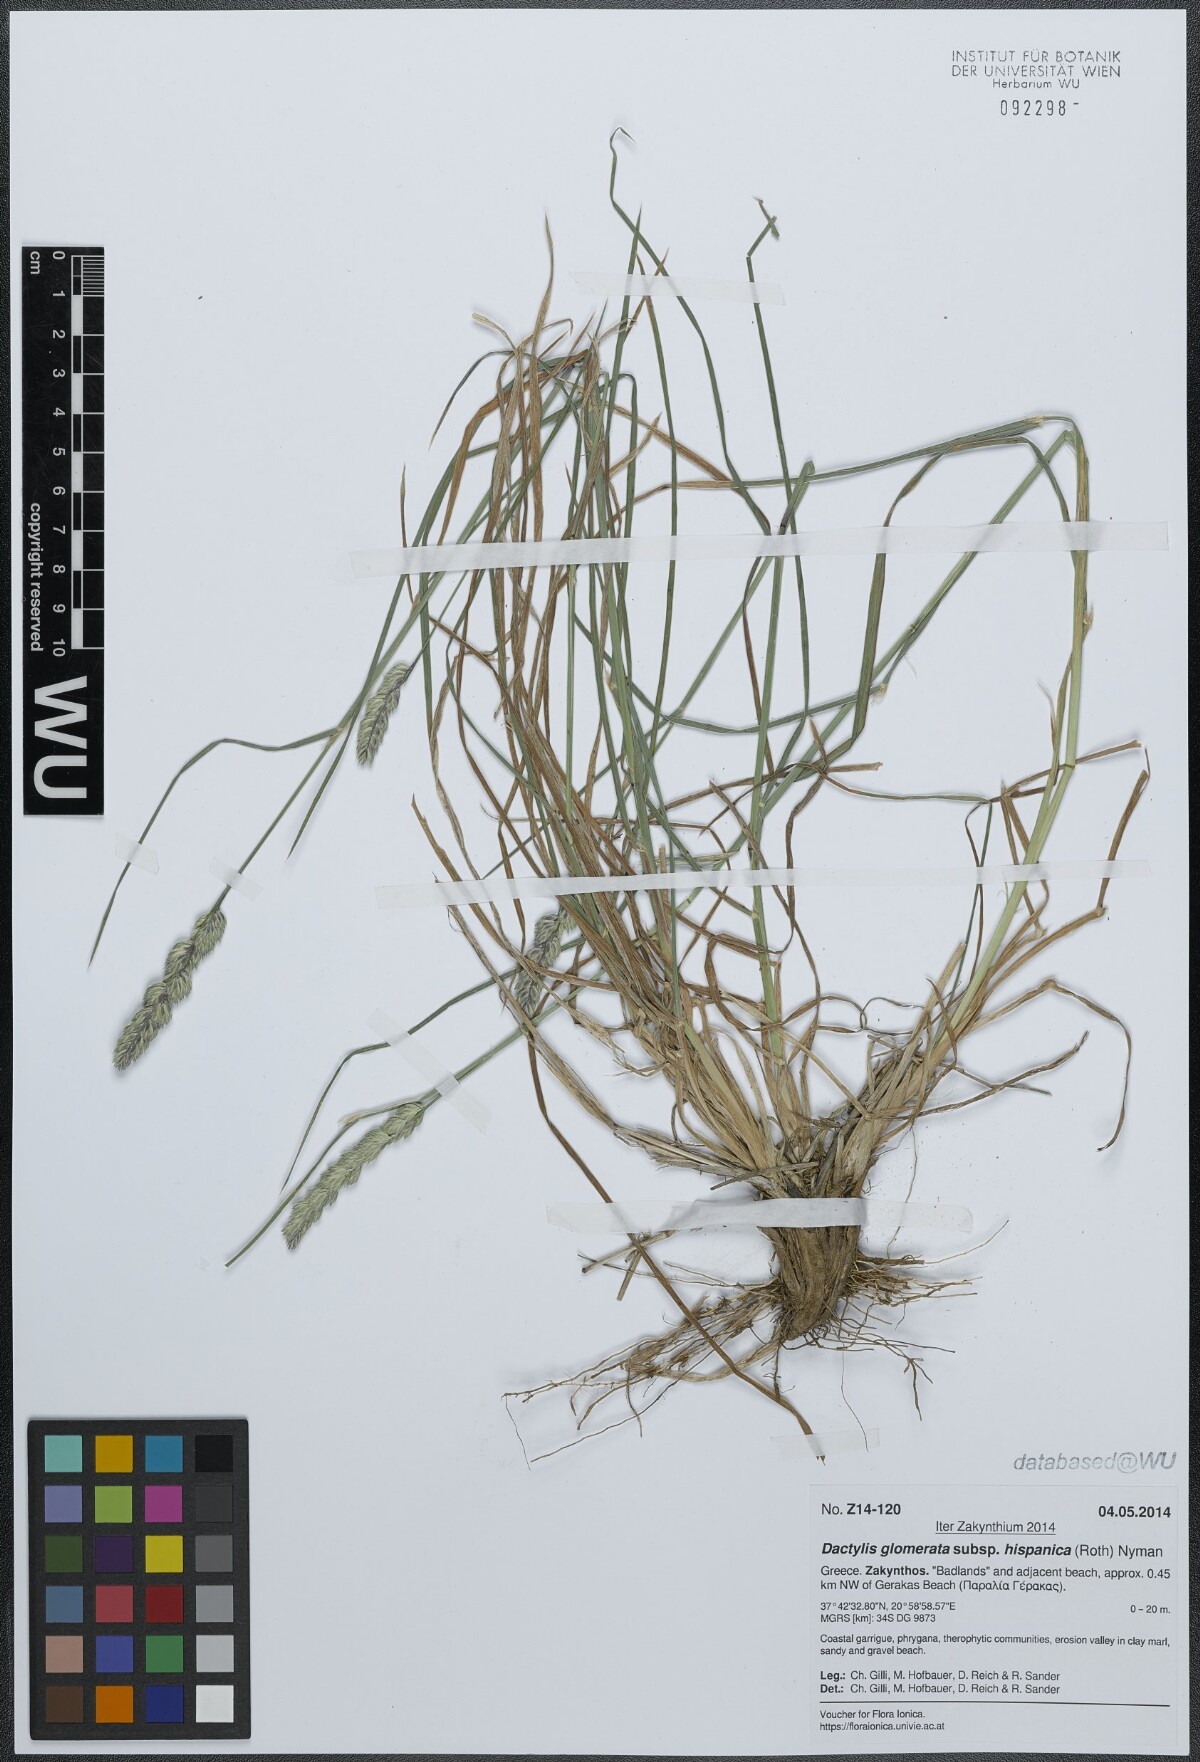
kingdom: Plantae
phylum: Tracheophyta
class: Liliopsida
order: Poales
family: Poaceae
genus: Dactylis
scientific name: Dactylis glomerata
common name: Orchardgrass
